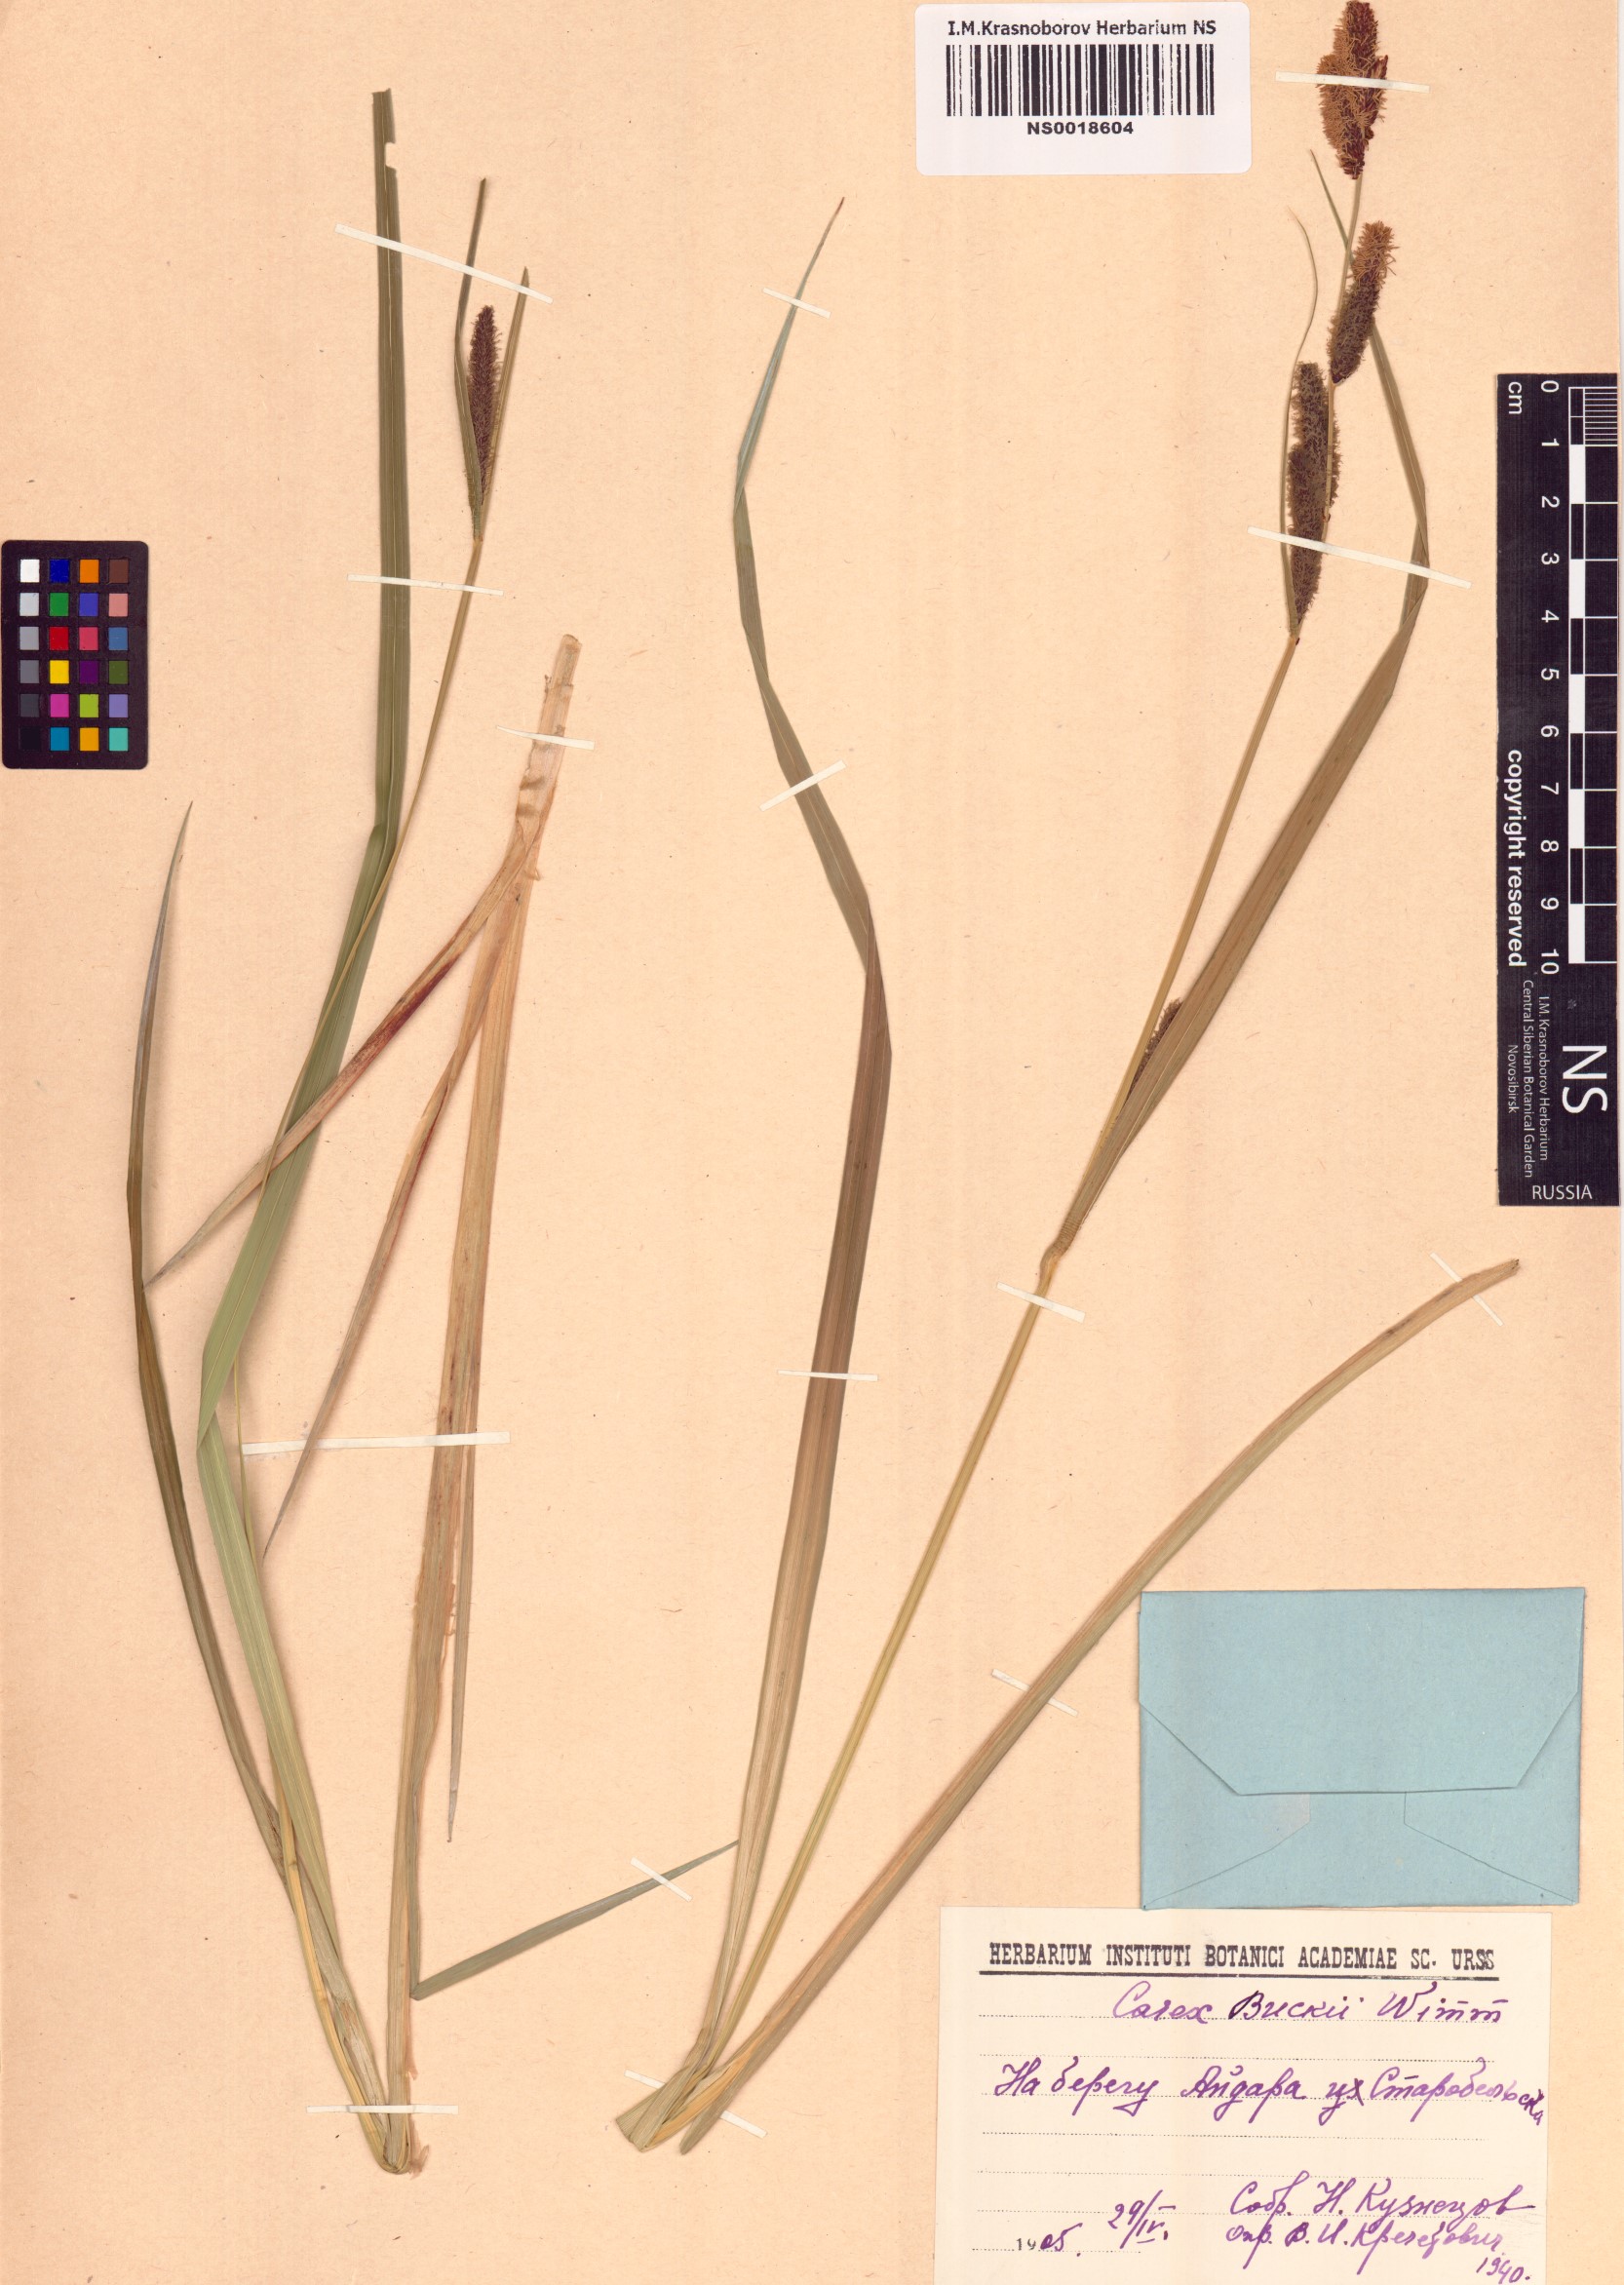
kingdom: Plantae
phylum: Tracheophyta
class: Liliopsida
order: Poales
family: Cyperaceae
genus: Carex
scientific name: Carex buekii
